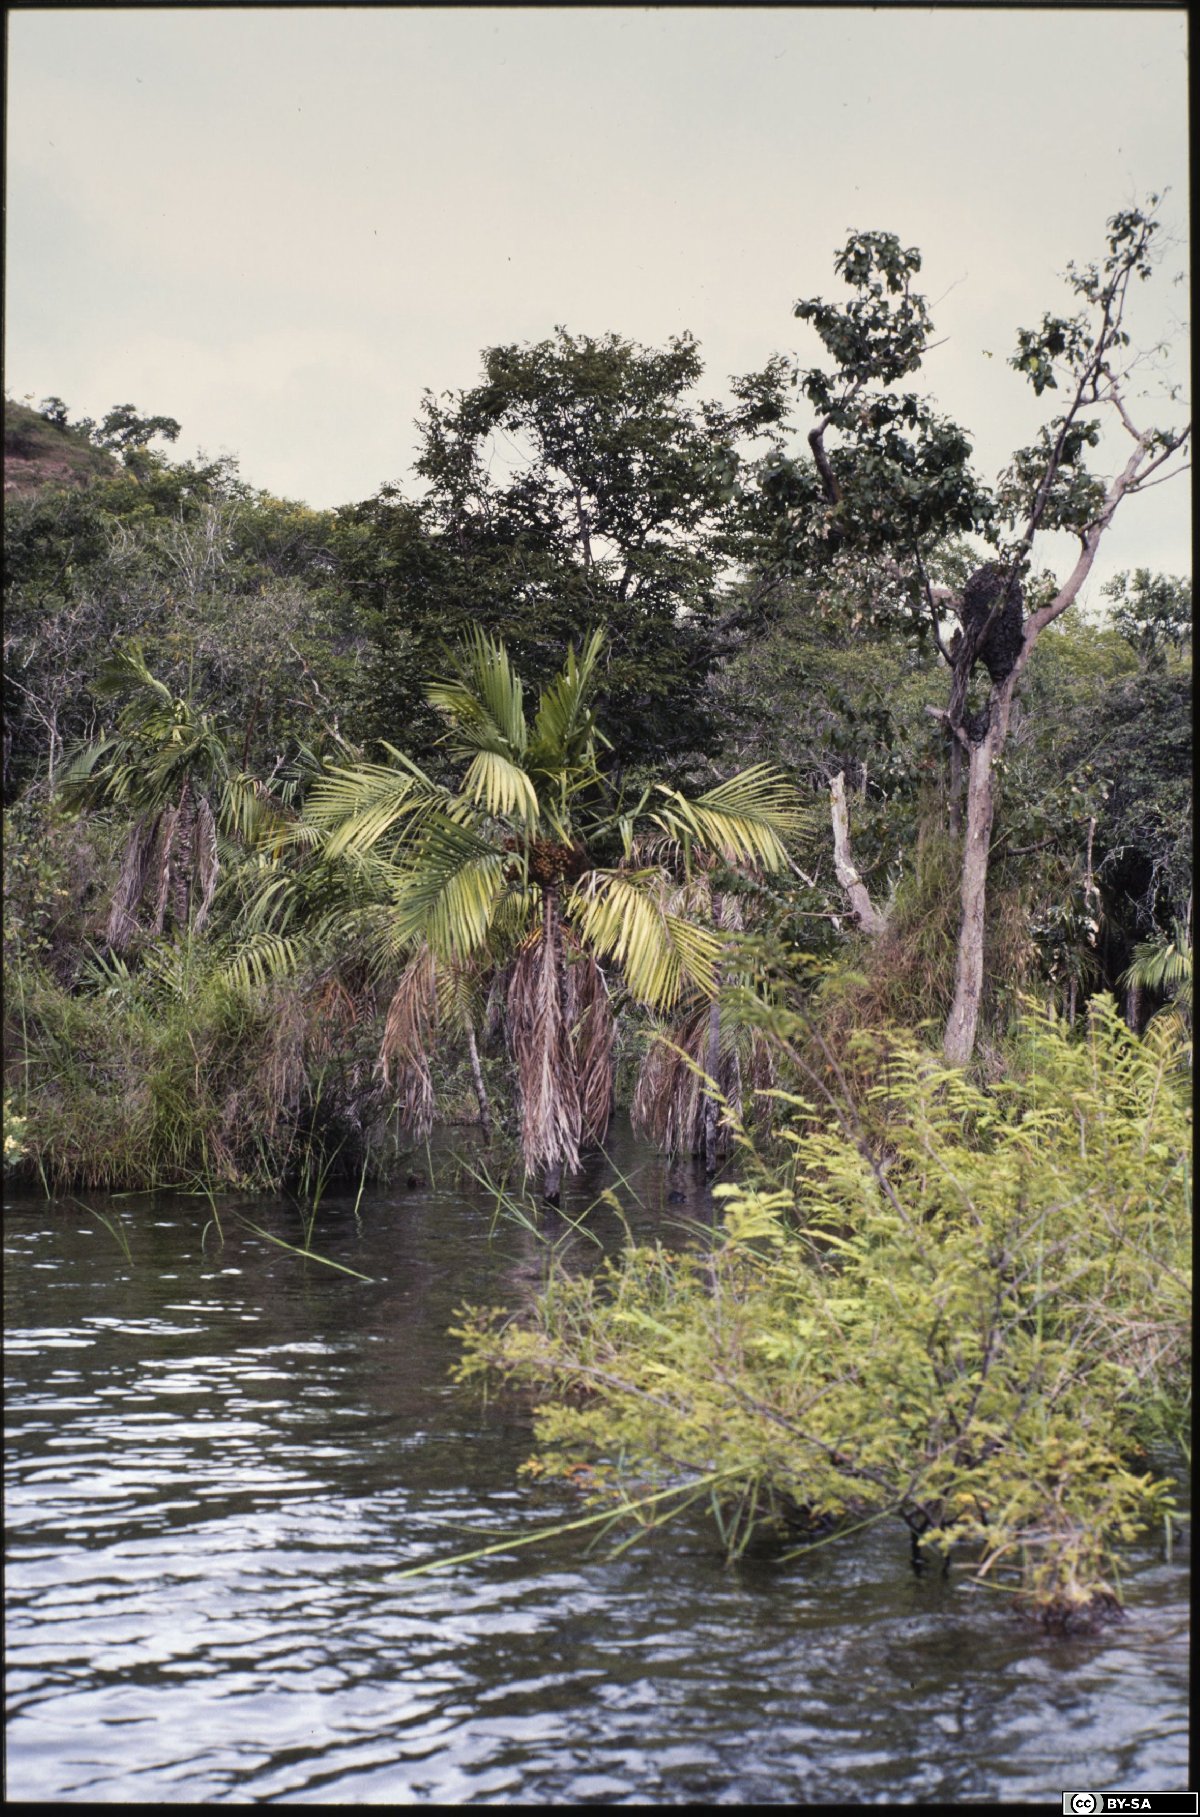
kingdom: Plantae
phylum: Tracheophyta
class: Liliopsida
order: Arecales
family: Arecaceae
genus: Leopoldinia
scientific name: Leopoldinia pulchra
